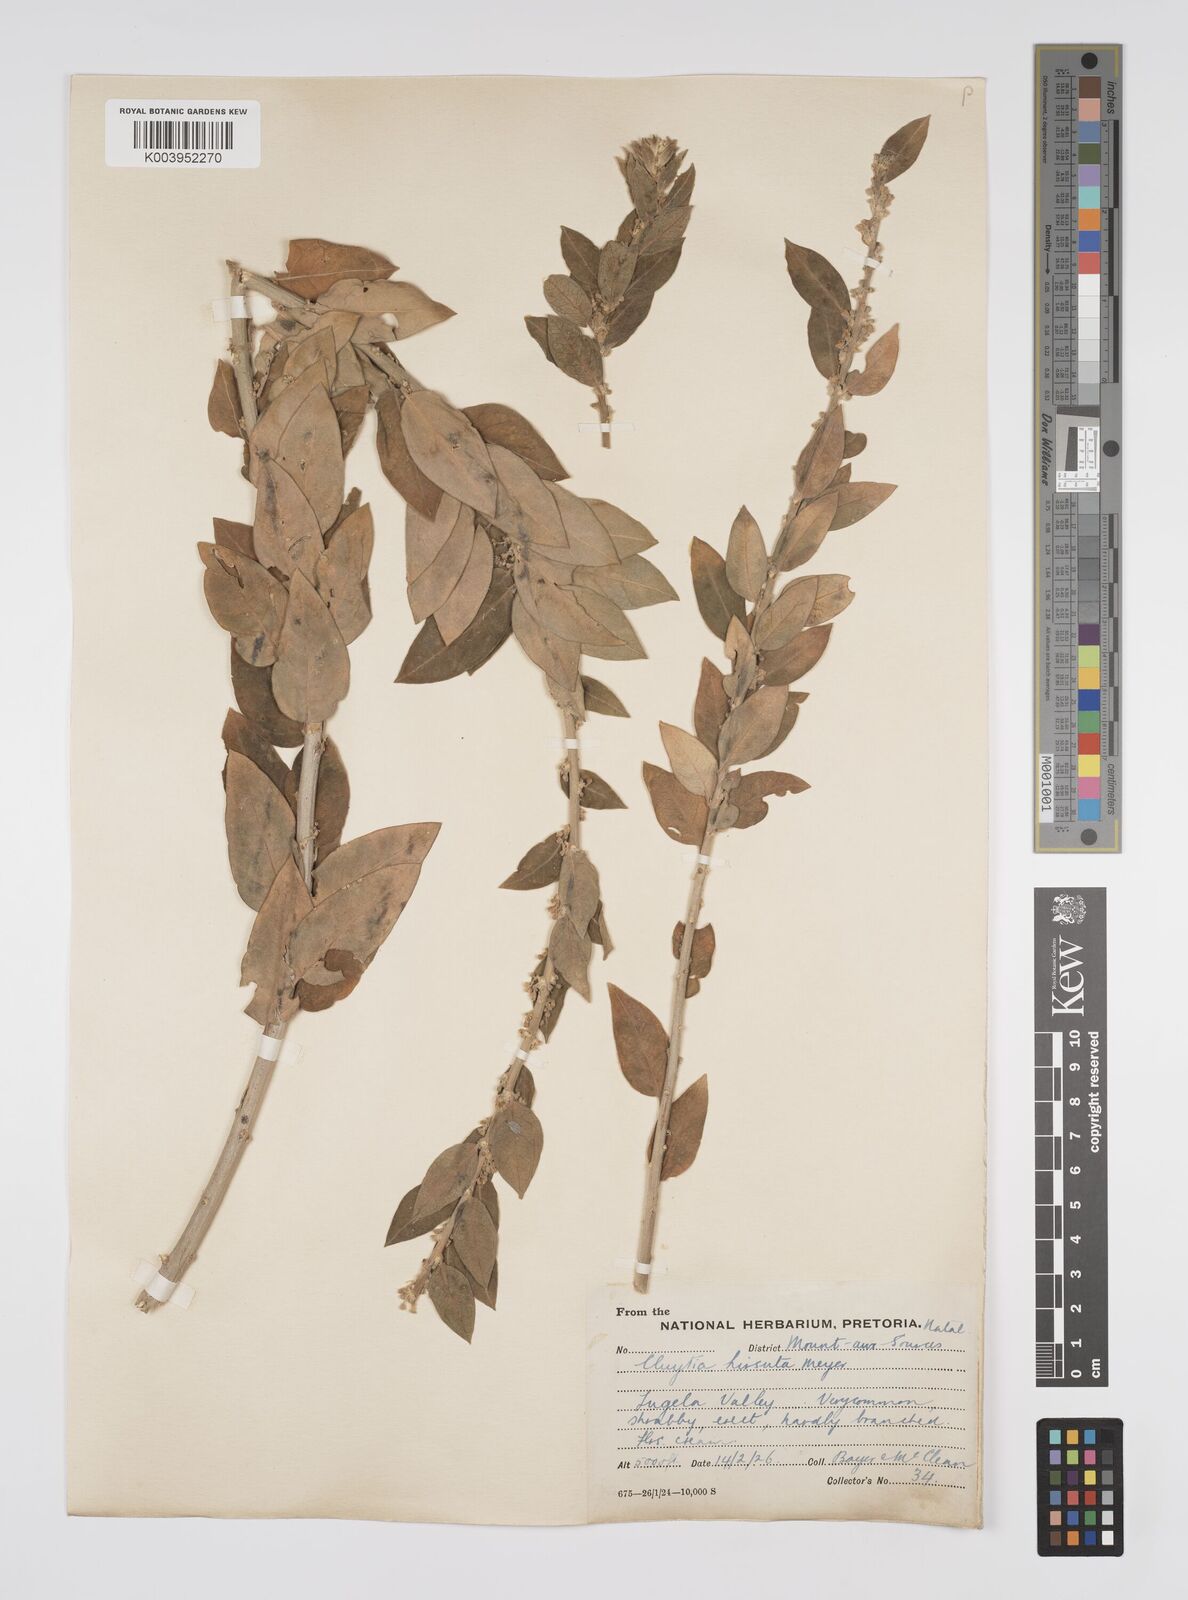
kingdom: Plantae
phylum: Tracheophyta
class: Magnoliopsida
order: Malpighiales
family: Peraceae
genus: Clutia
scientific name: Clutia affinis
